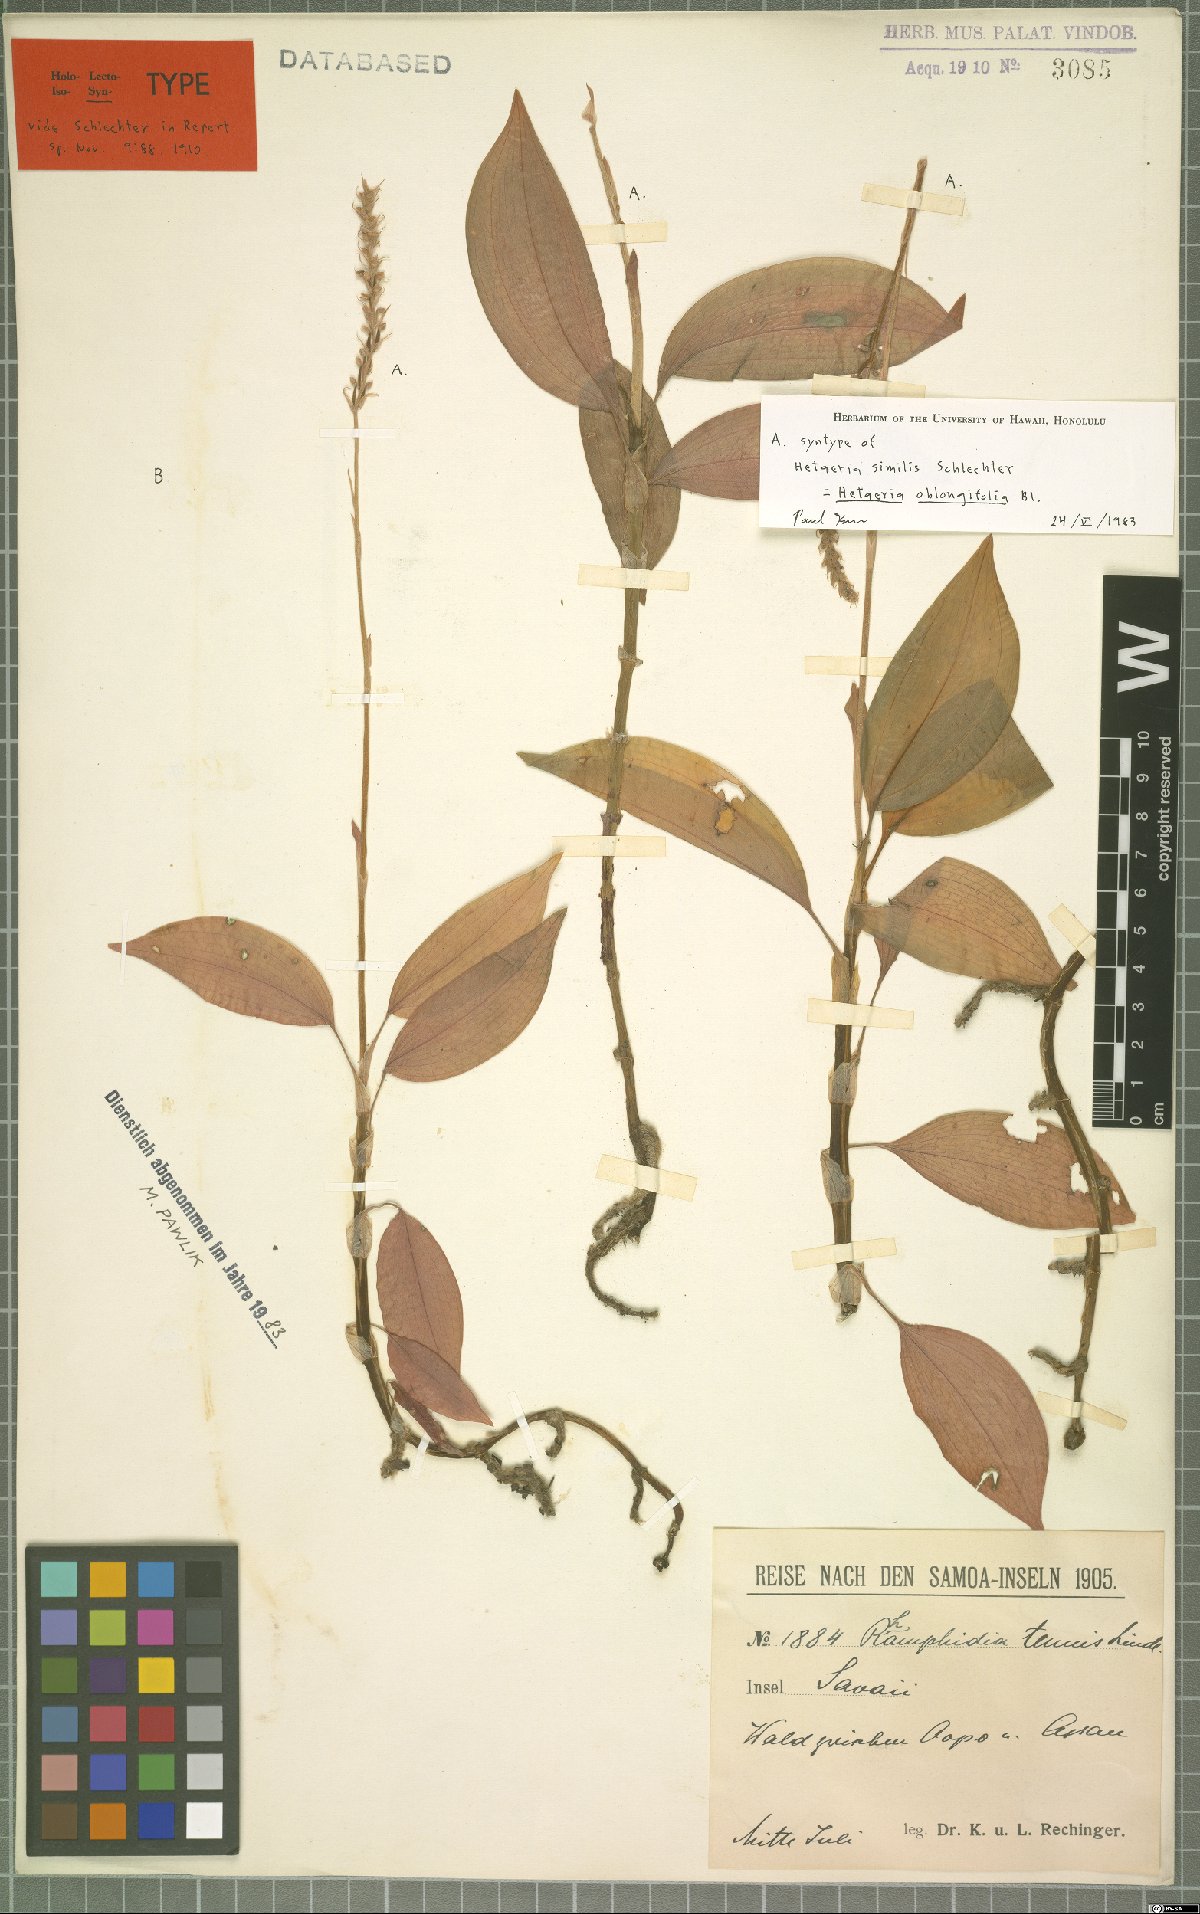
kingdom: Plantae
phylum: Tracheophyta
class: Liliopsida
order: Asparagales
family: Orchidaceae
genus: Hetaeria
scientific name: Hetaeria oblongifolia
